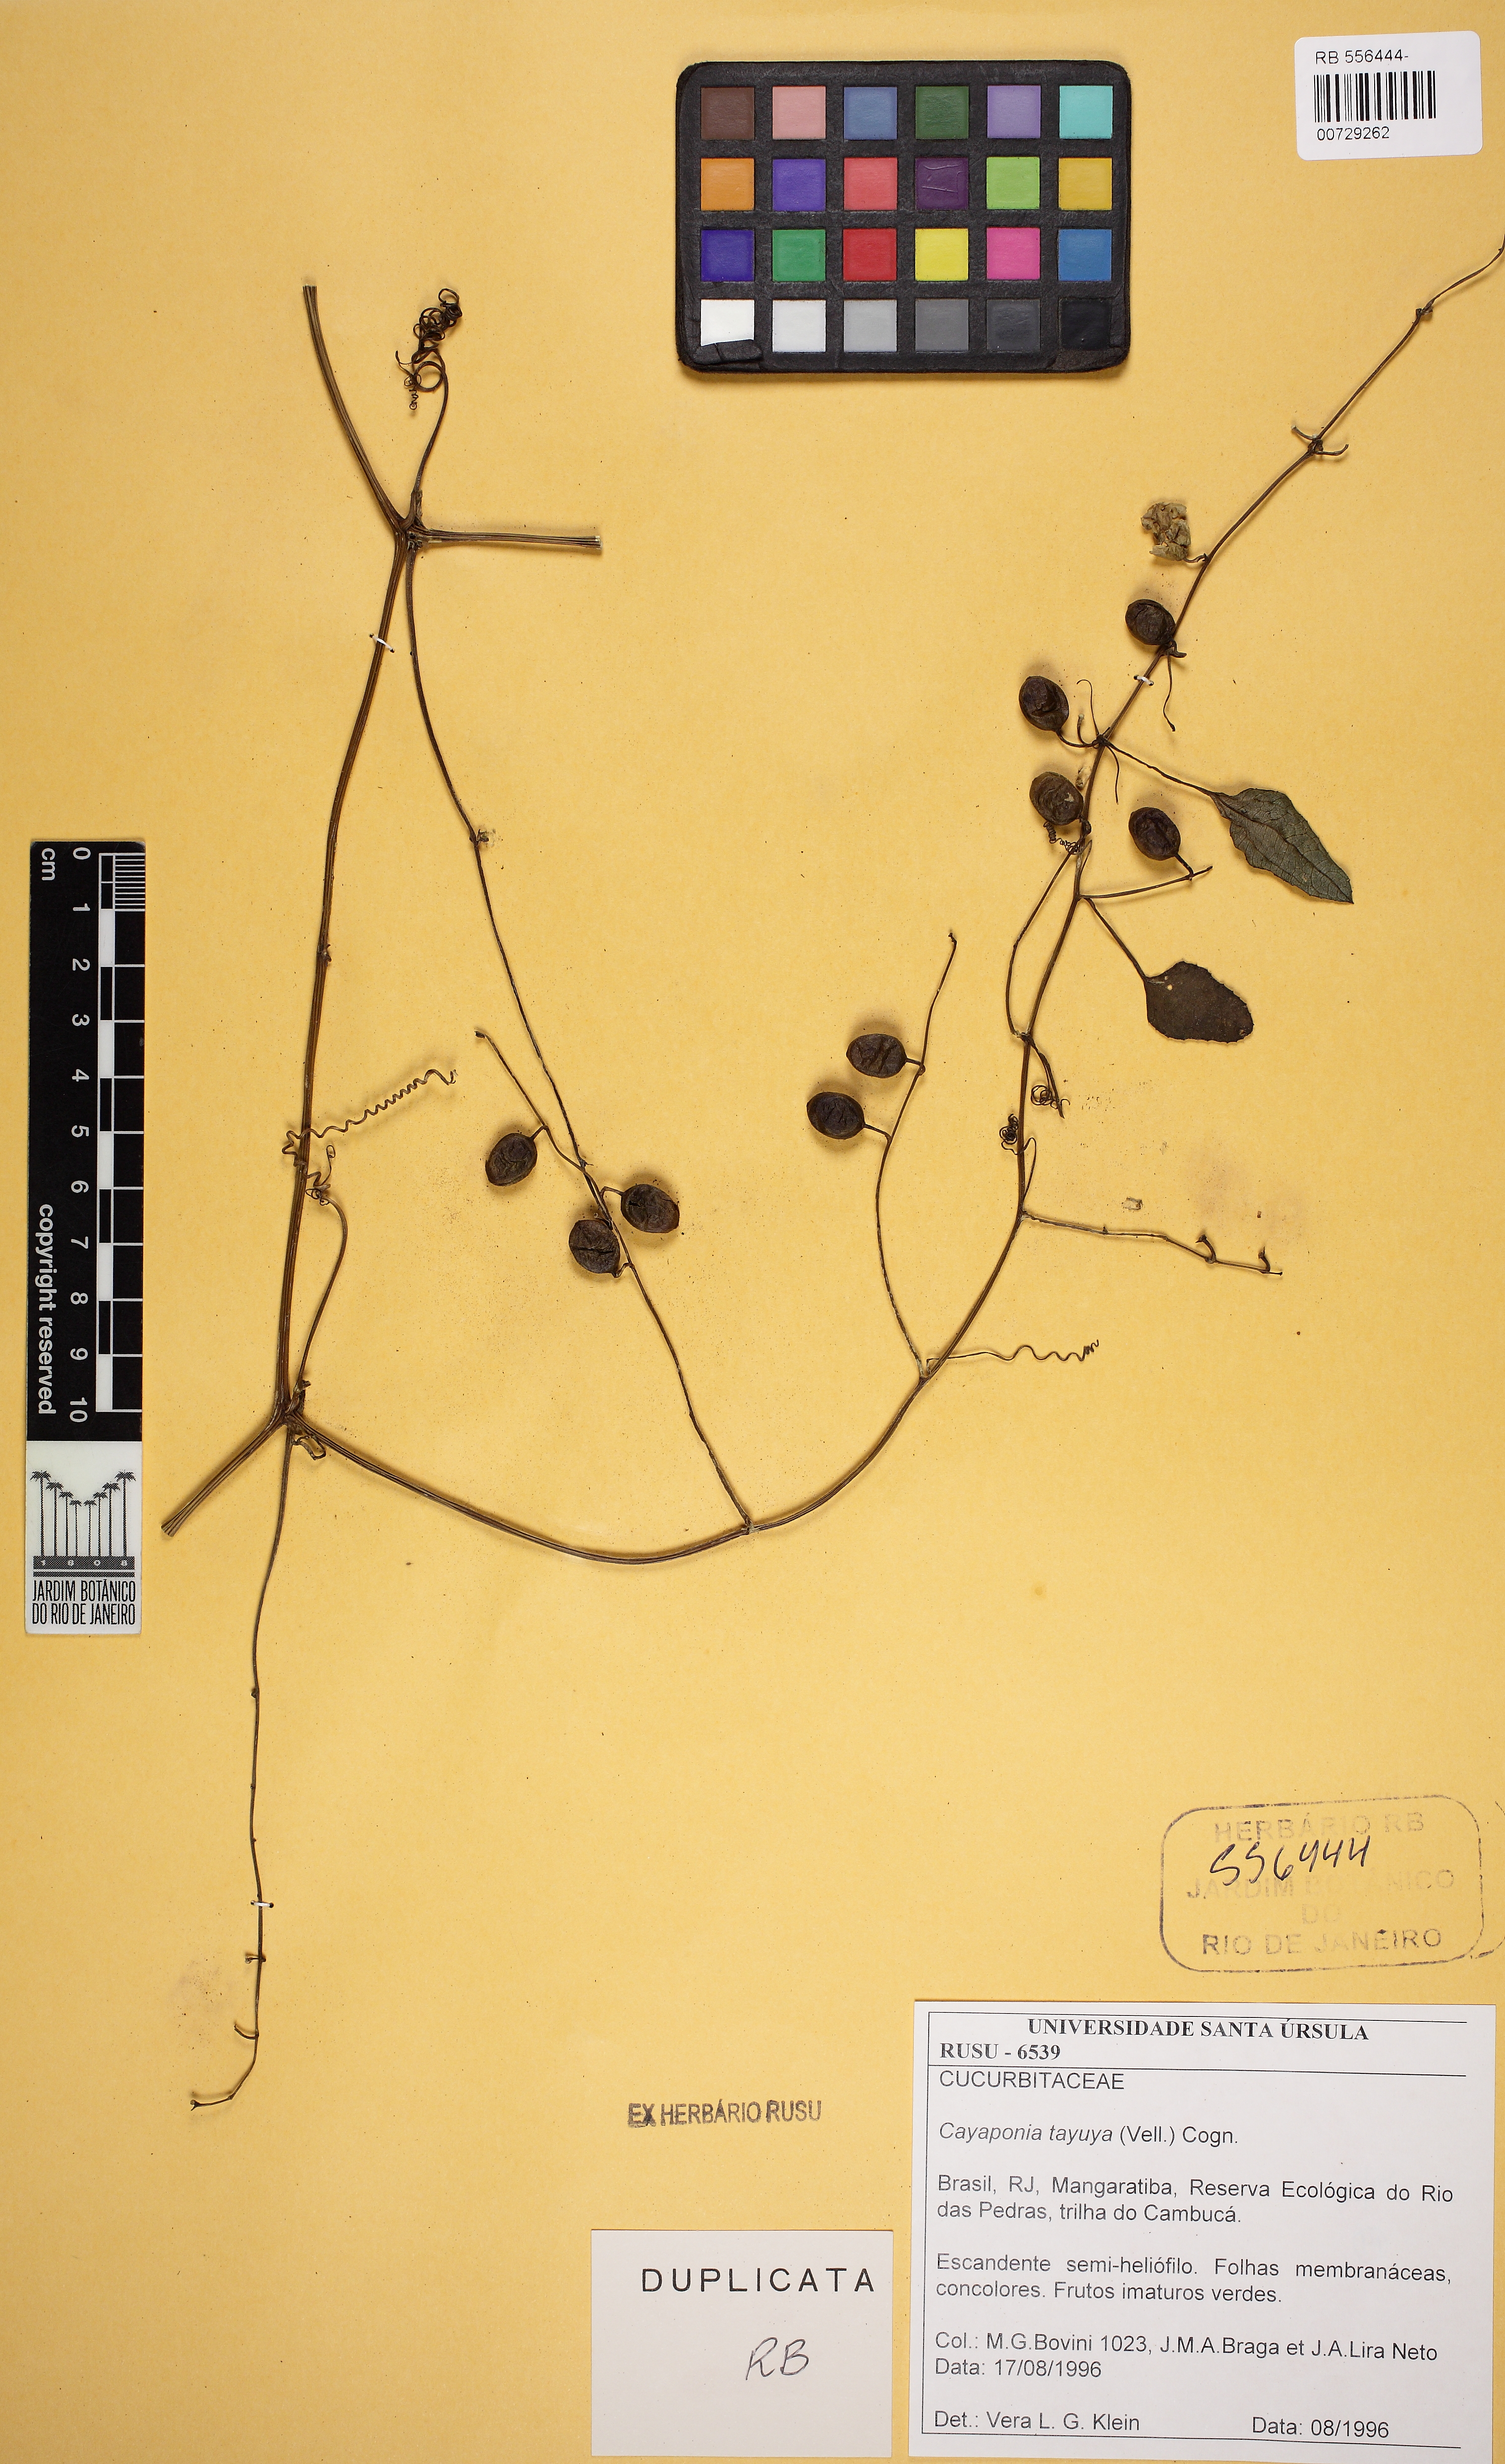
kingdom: Plantae
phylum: Tracheophyta
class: Magnoliopsida
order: Cucurbitales
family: Cucurbitaceae
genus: Cayaponia
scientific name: Cayaponia tayuya
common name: Tayuya
